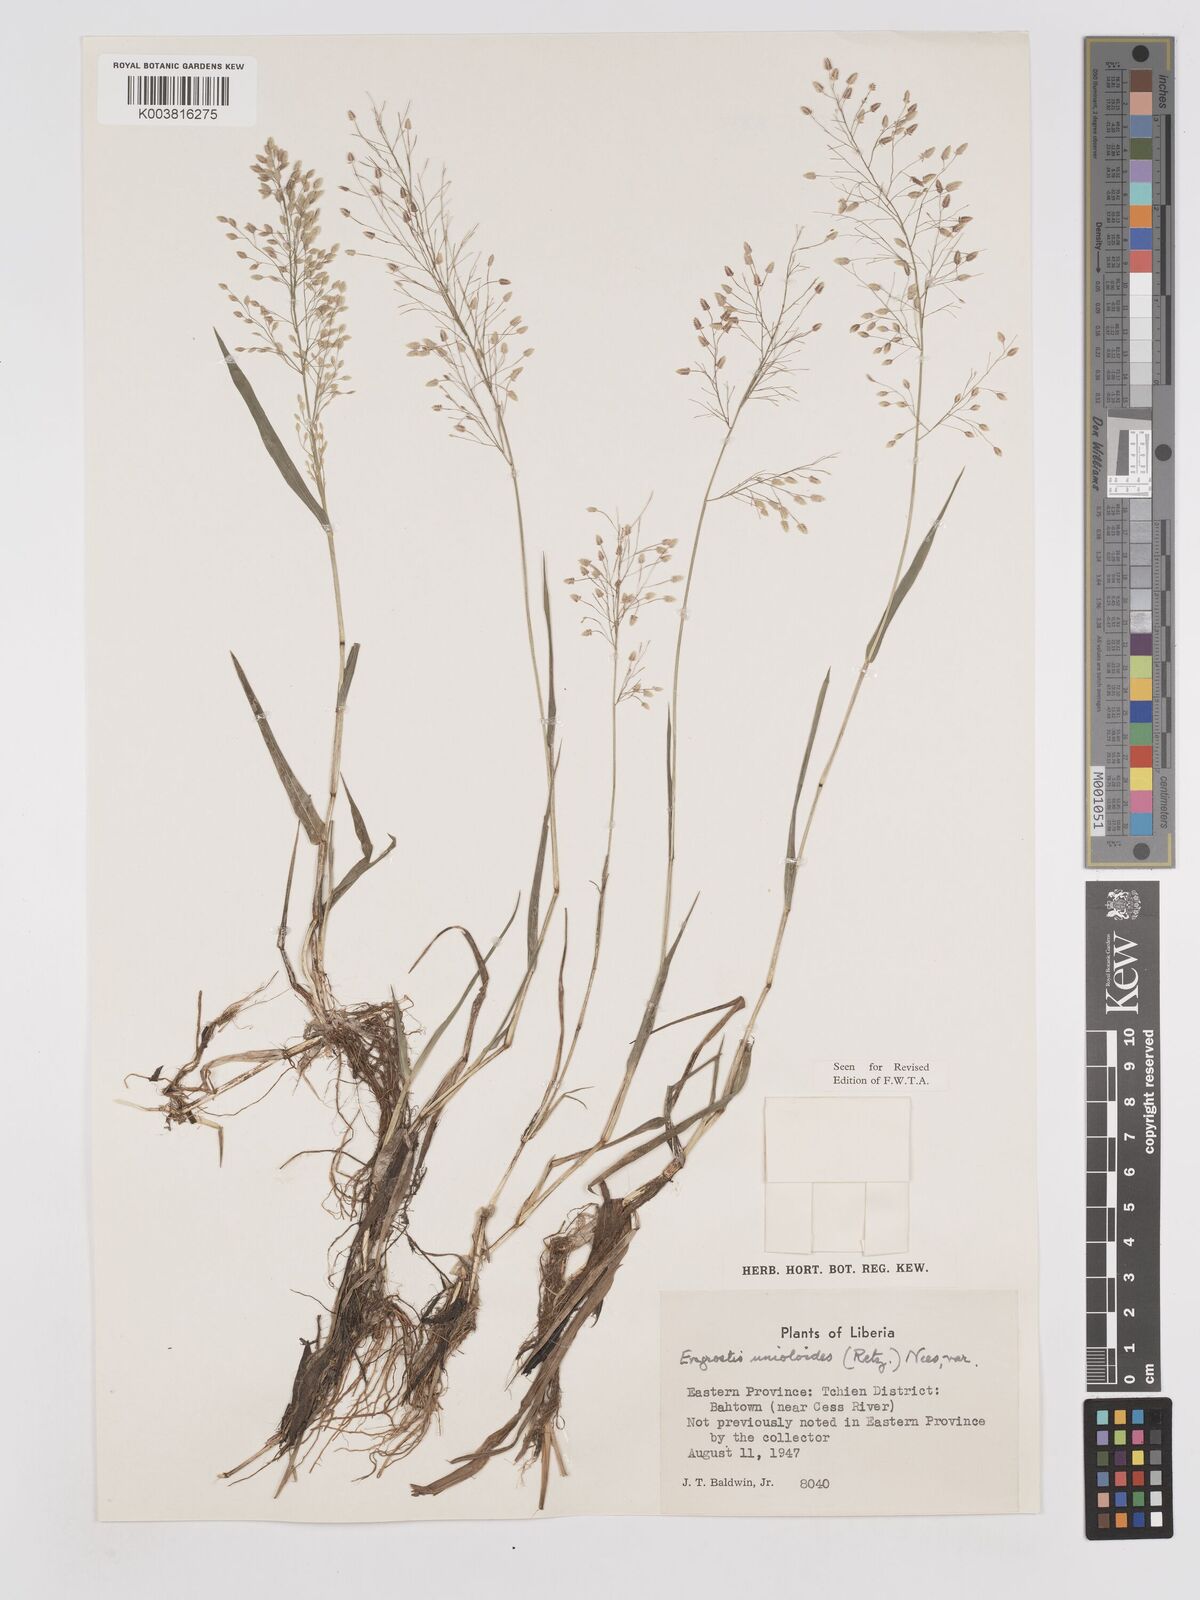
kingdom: Plantae
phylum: Tracheophyta
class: Liliopsida
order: Poales
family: Poaceae
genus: Eragrostis
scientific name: Eragrostis unioloides
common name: Chinese lovegrass
